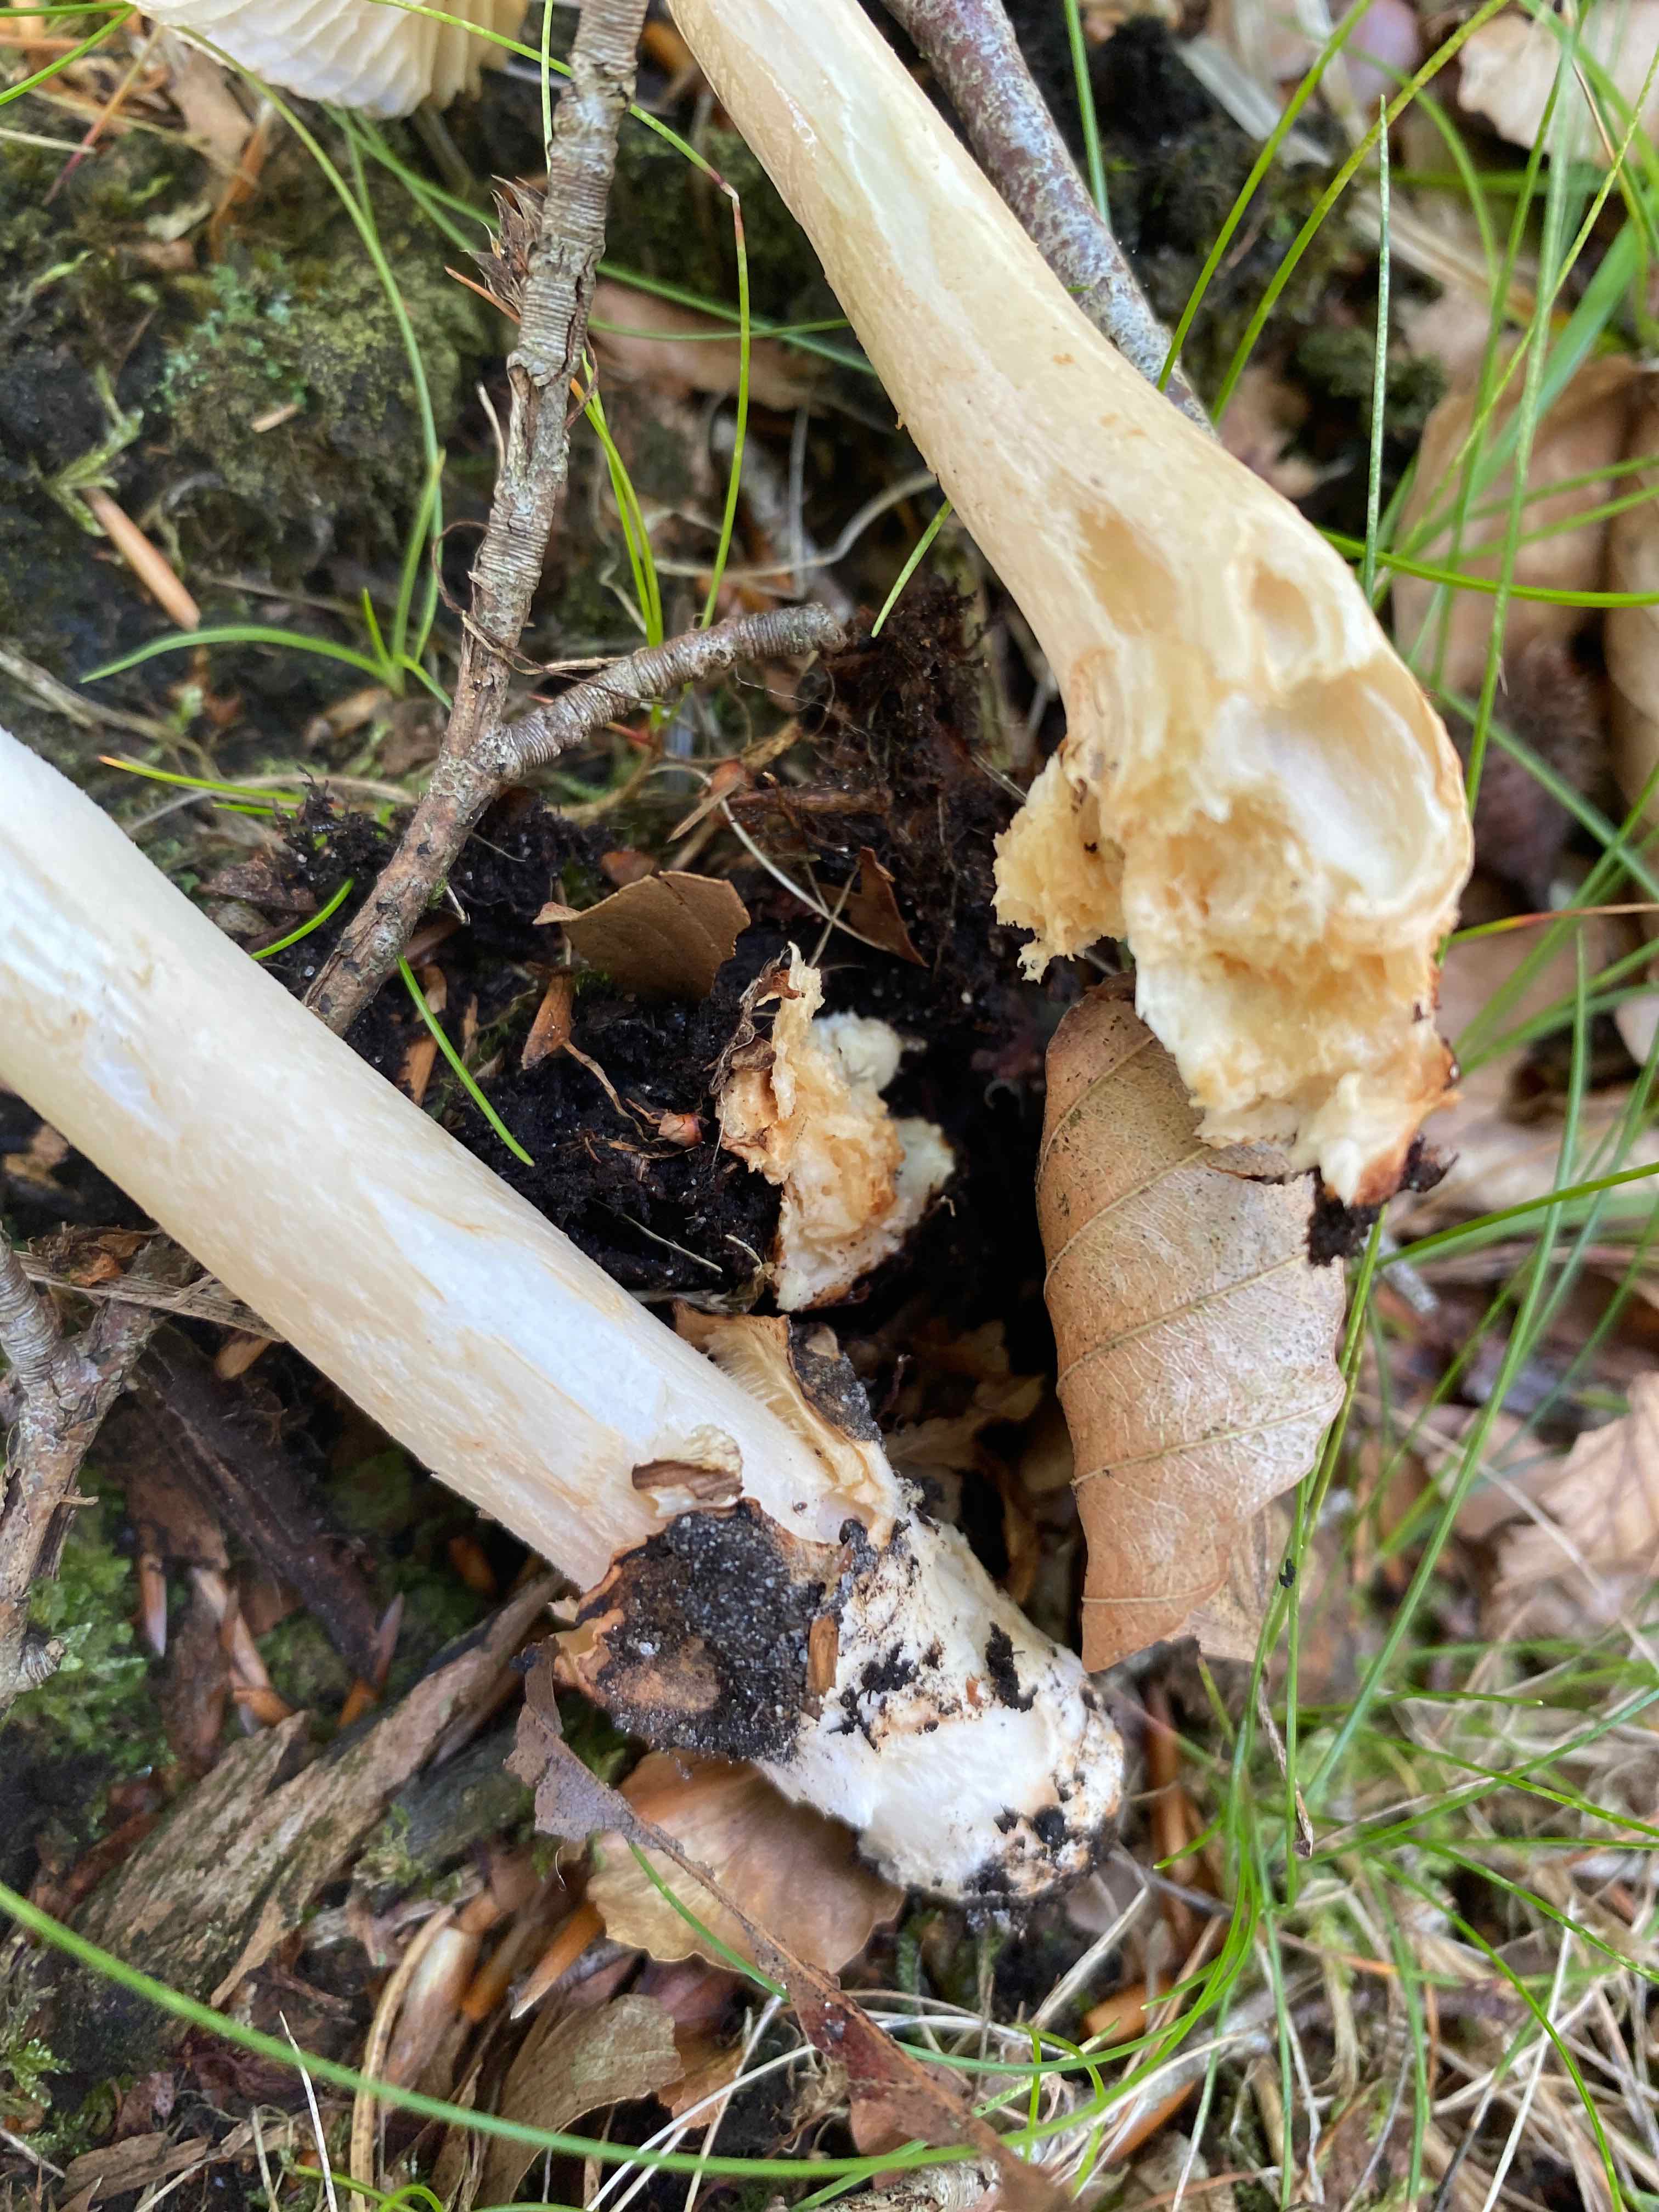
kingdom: Fungi
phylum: Basidiomycota
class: Agaricomycetes
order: Agaricales
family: Amanitaceae
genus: Amanita
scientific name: Amanita fulva
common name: brun kam-fluesvamp
